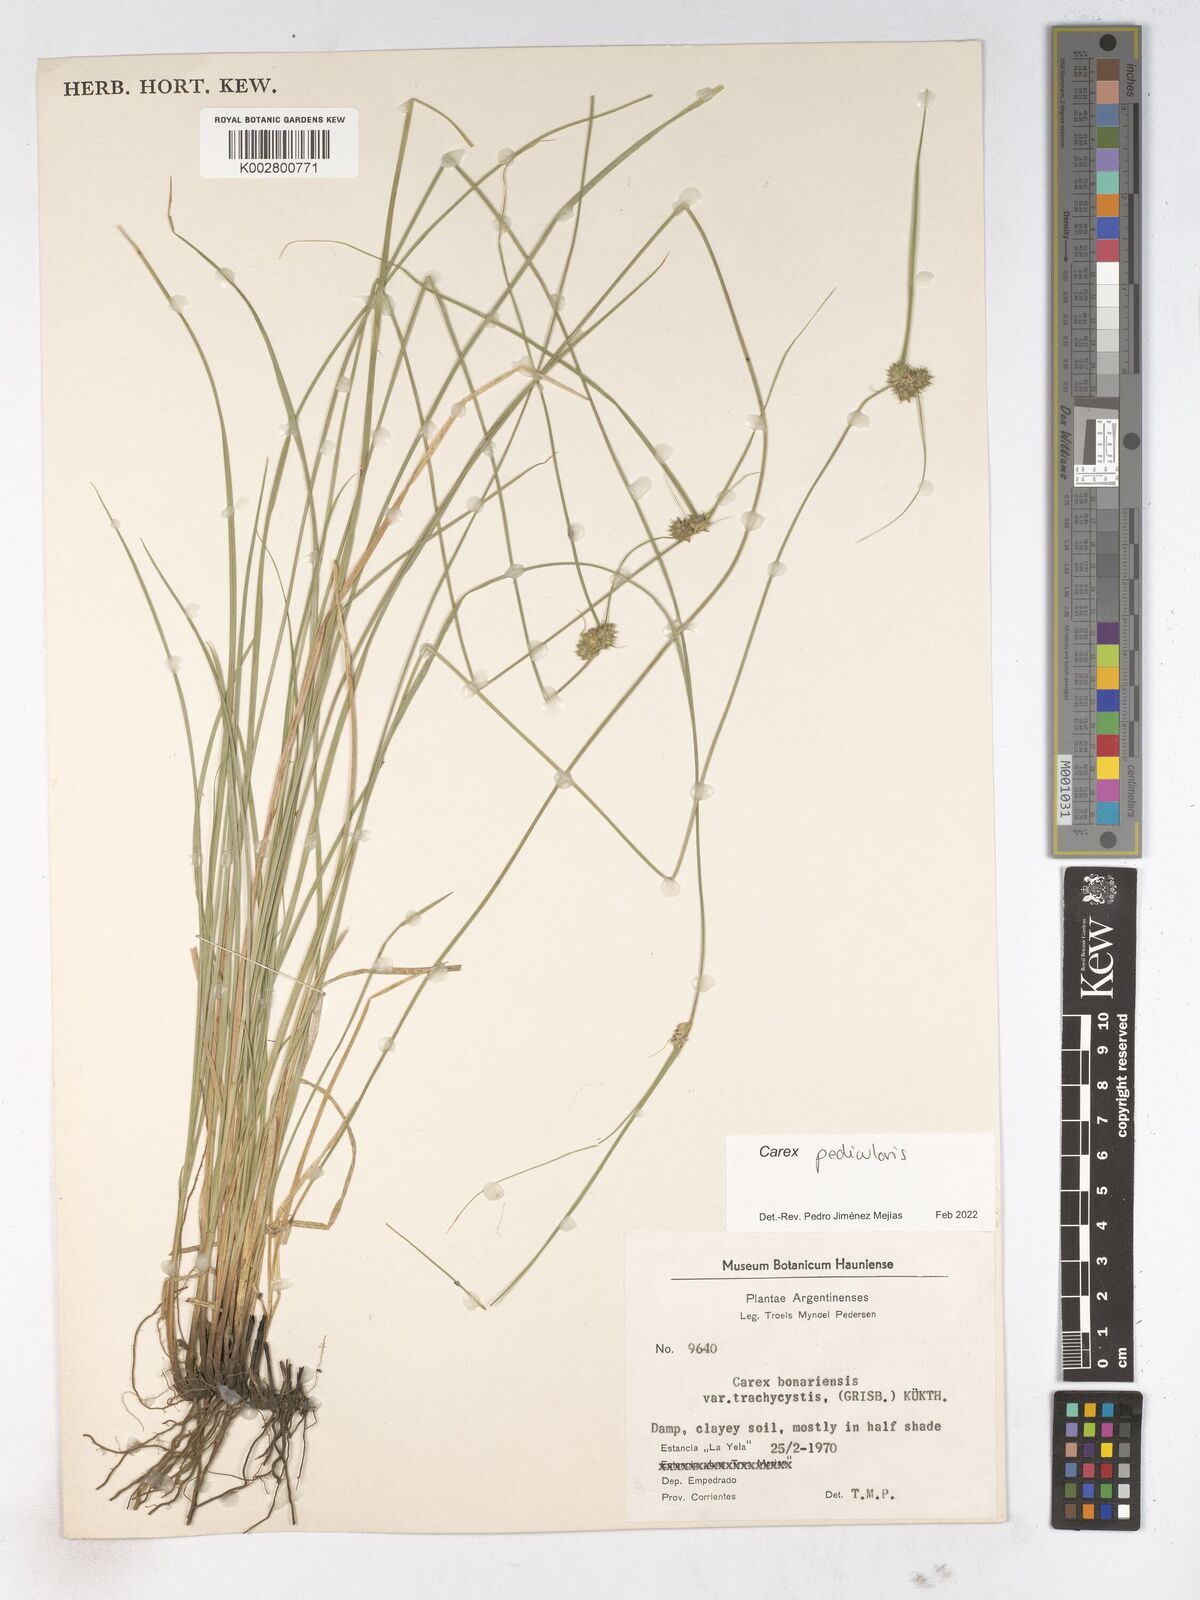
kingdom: Plantae
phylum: Tracheophyta
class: Liliopsida
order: Poales
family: Cyperaceae
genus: Carex
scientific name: Carex
